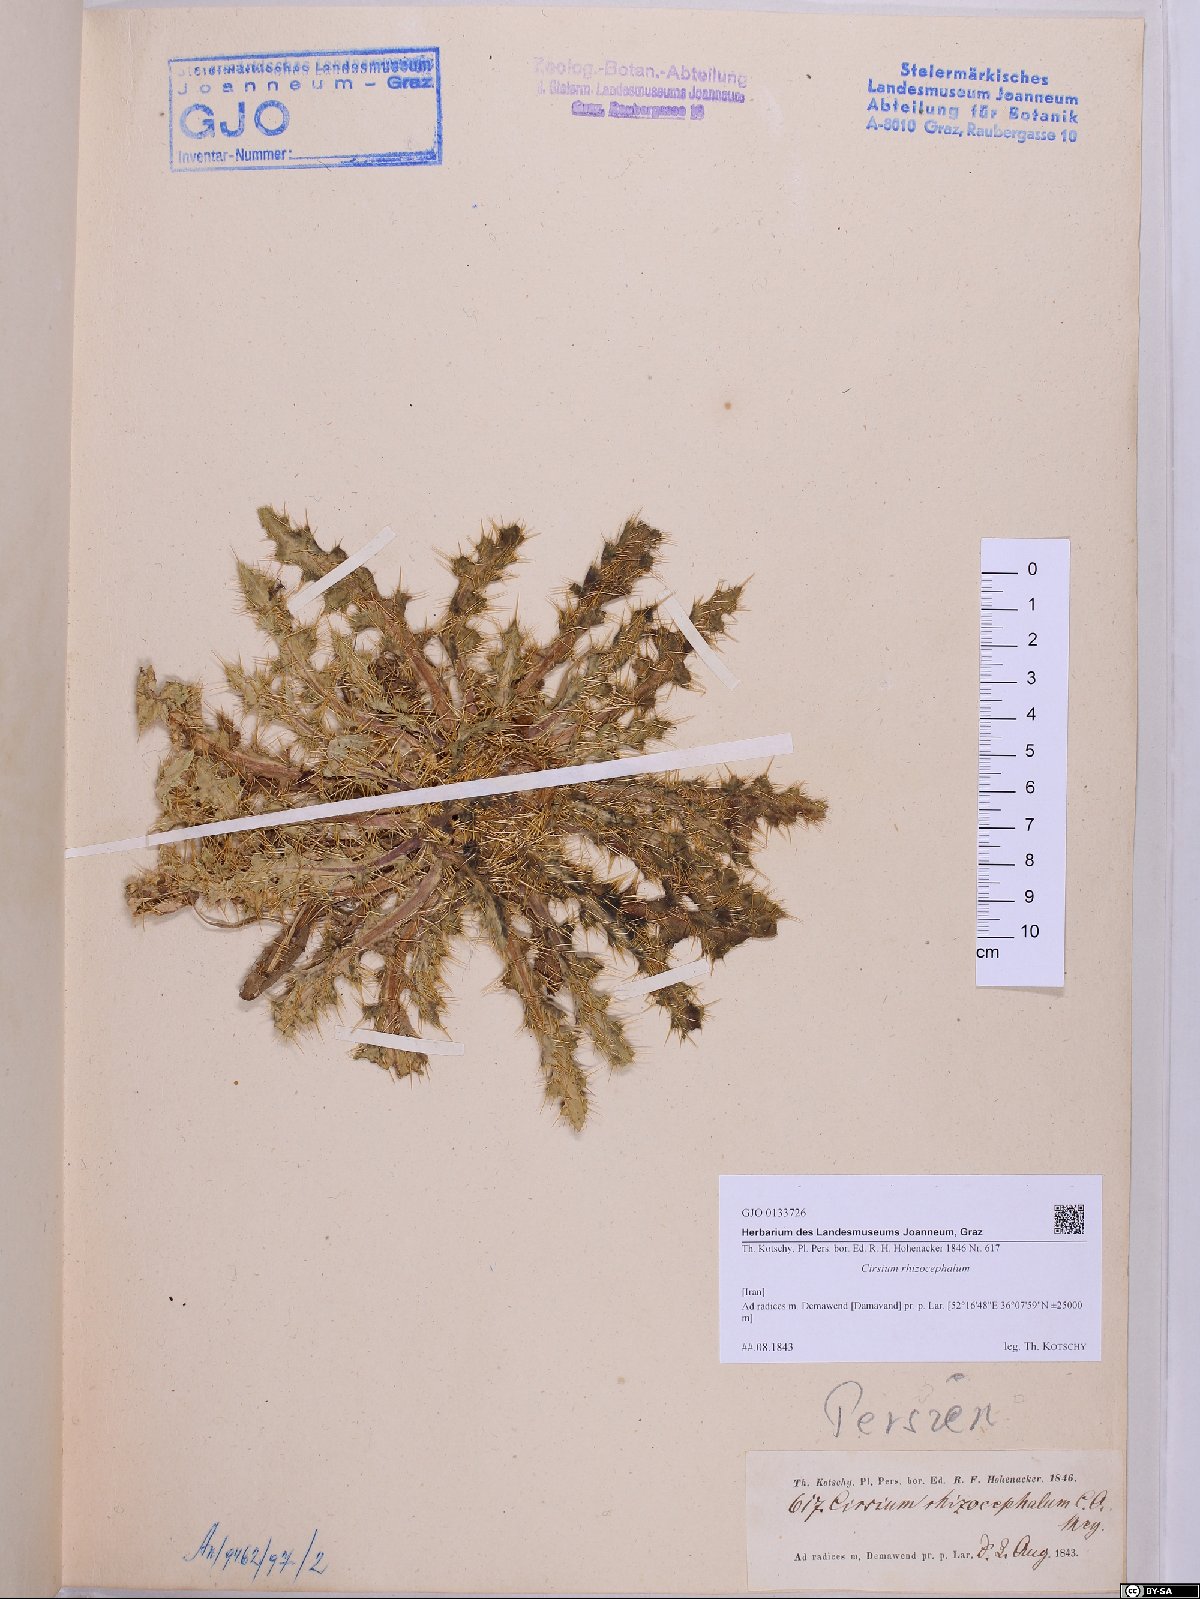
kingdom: Plantae
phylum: Tracheophyta
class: Magnoliopsida
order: Asterales
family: Asteraceae
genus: Cirsium
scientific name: Cirsium rhizocephalum
